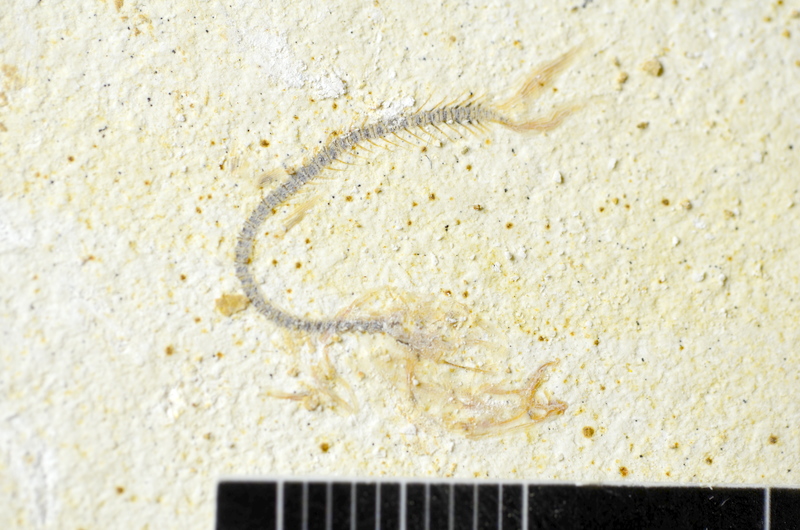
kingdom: Animalia
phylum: Chordata
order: Salmoniformes
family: Orthogonikleithridae
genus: Orthogonikleithrus
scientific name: Orthogonikleithrus hoelli
